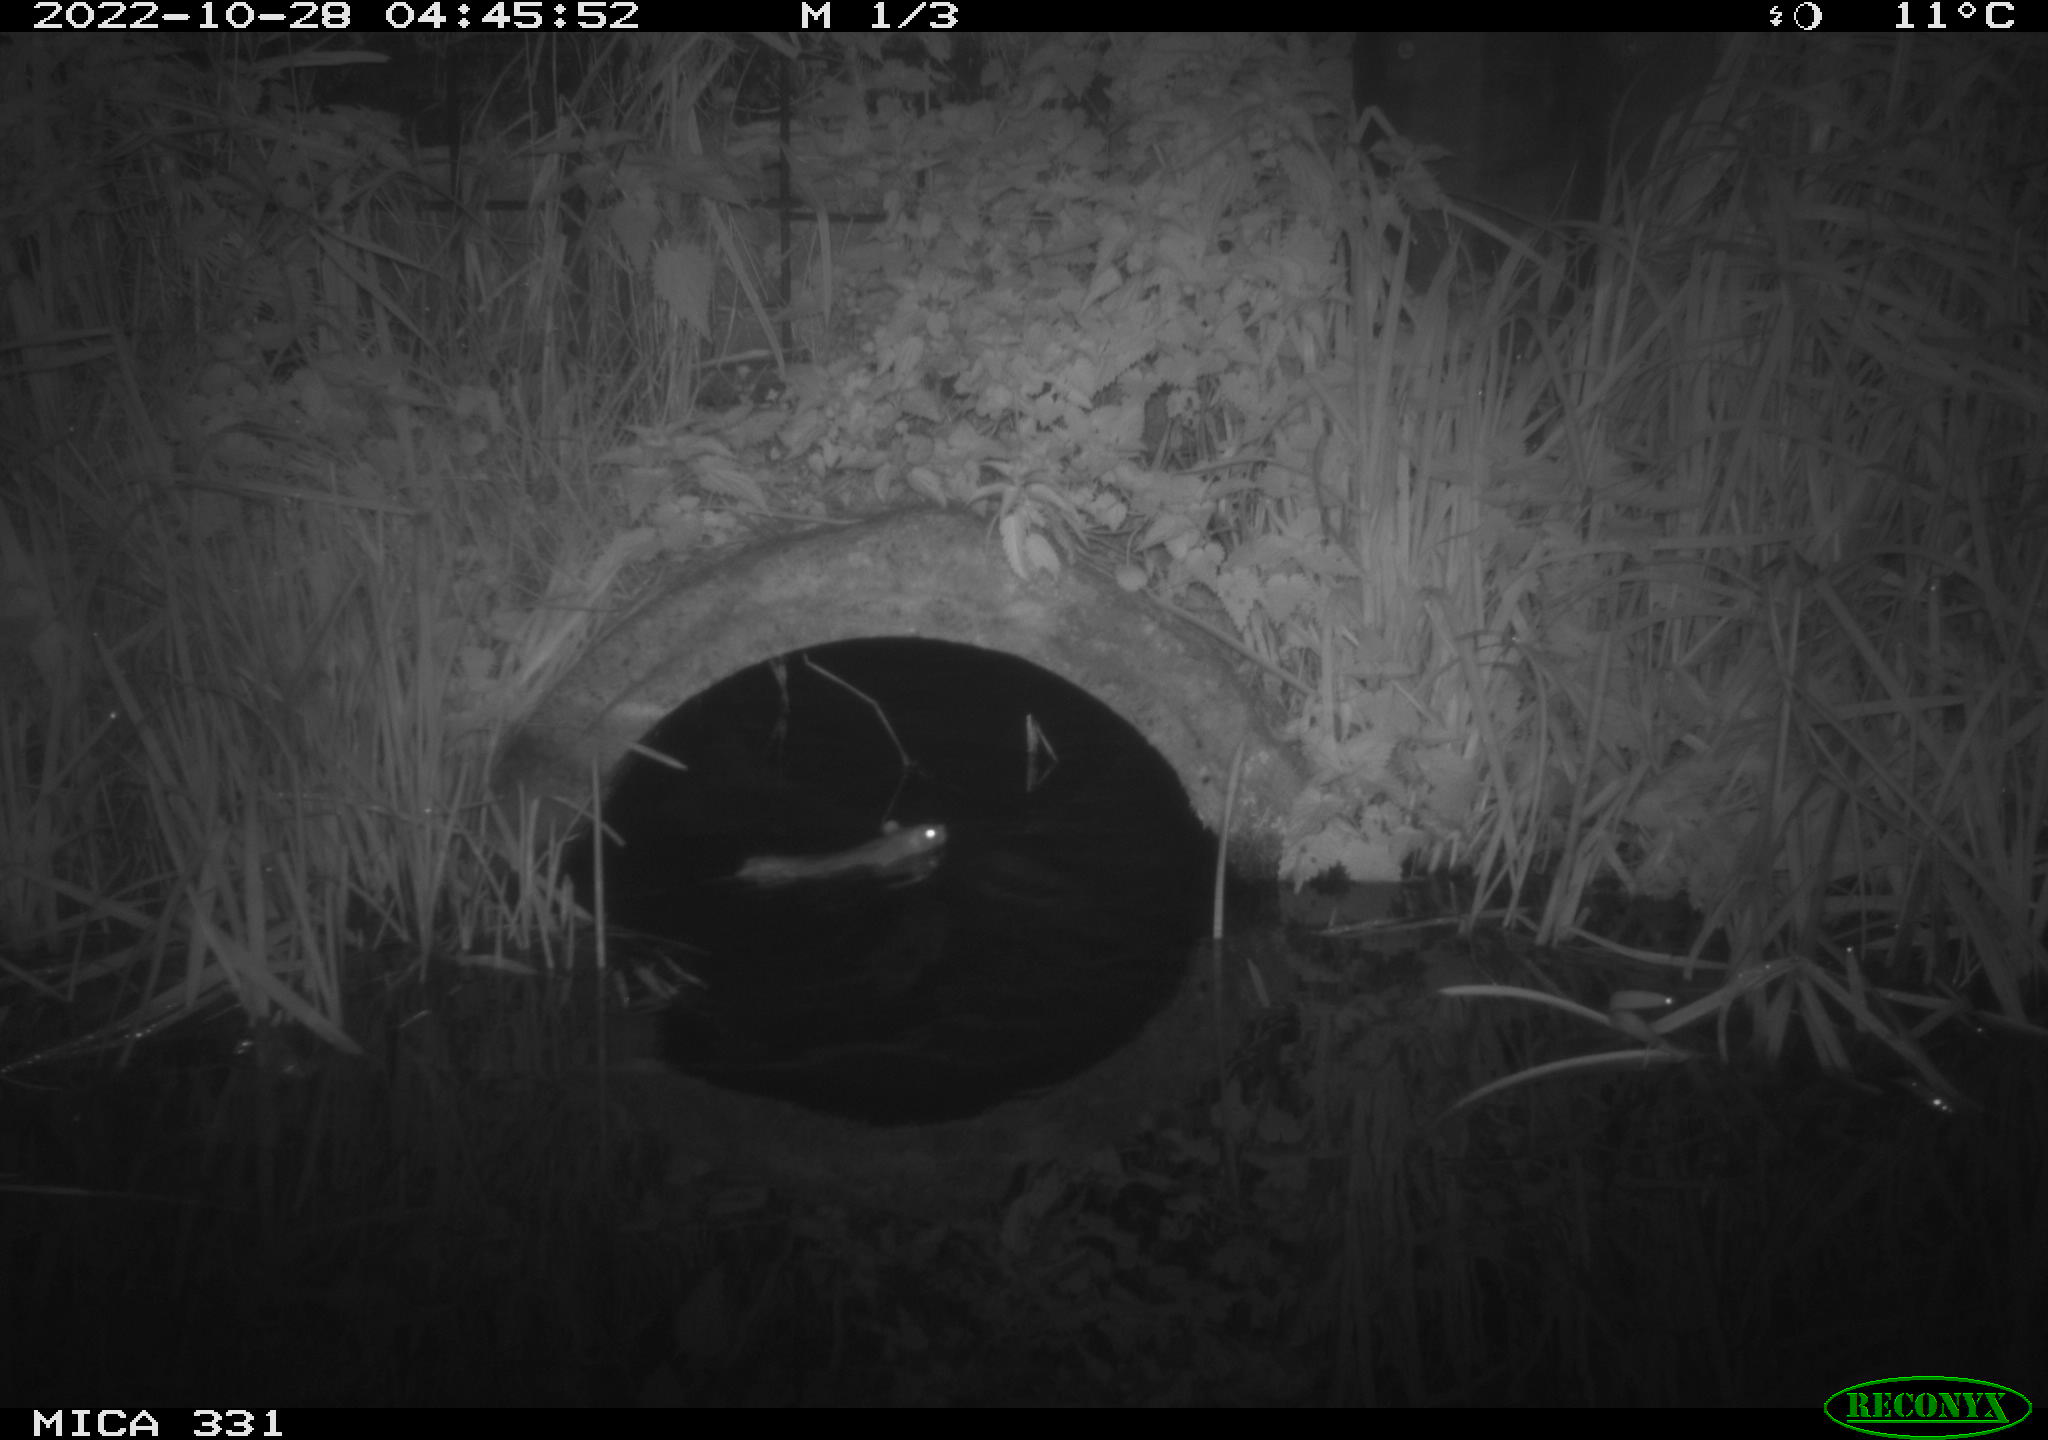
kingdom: Animalia
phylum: Chordata
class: Mammalia
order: Rodentia
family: Muridae
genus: Rattus
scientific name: Rattus norvegicus
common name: Brown rat
